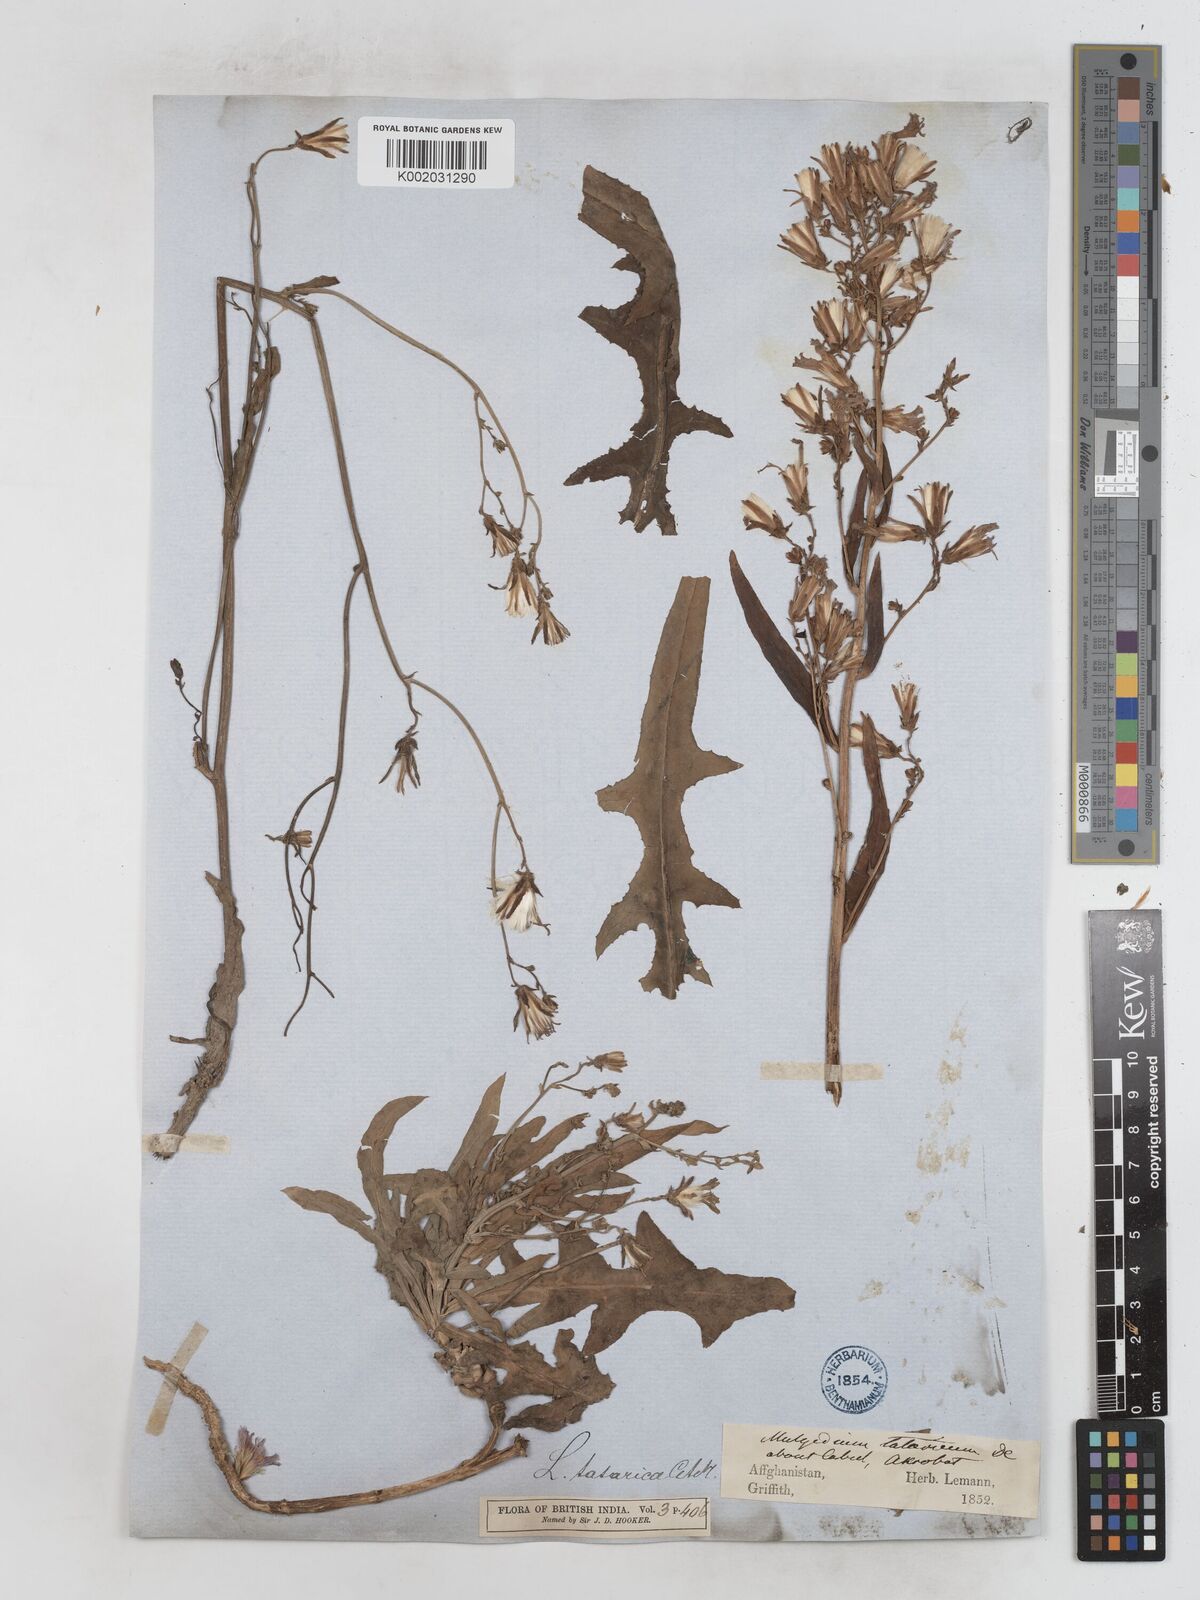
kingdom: Plantae
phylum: Tracheophyta
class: Magnoliopsida
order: Asterales
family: Asteraceae
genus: Lactuca
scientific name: Lactuca tatarica
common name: Blue lettuce
